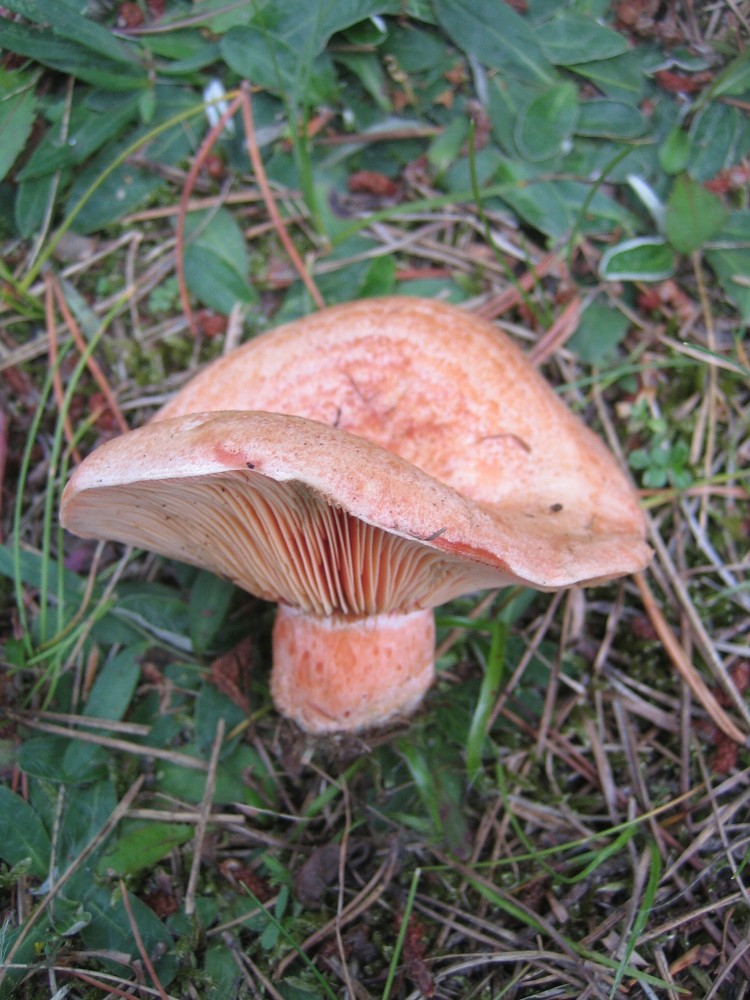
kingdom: Fungi
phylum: Basidiomycota
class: Agaricomycetes
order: Russulales
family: Russulaceae
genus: Lactarius
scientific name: Lactarius deliciosus
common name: velsmagende mælkehat
